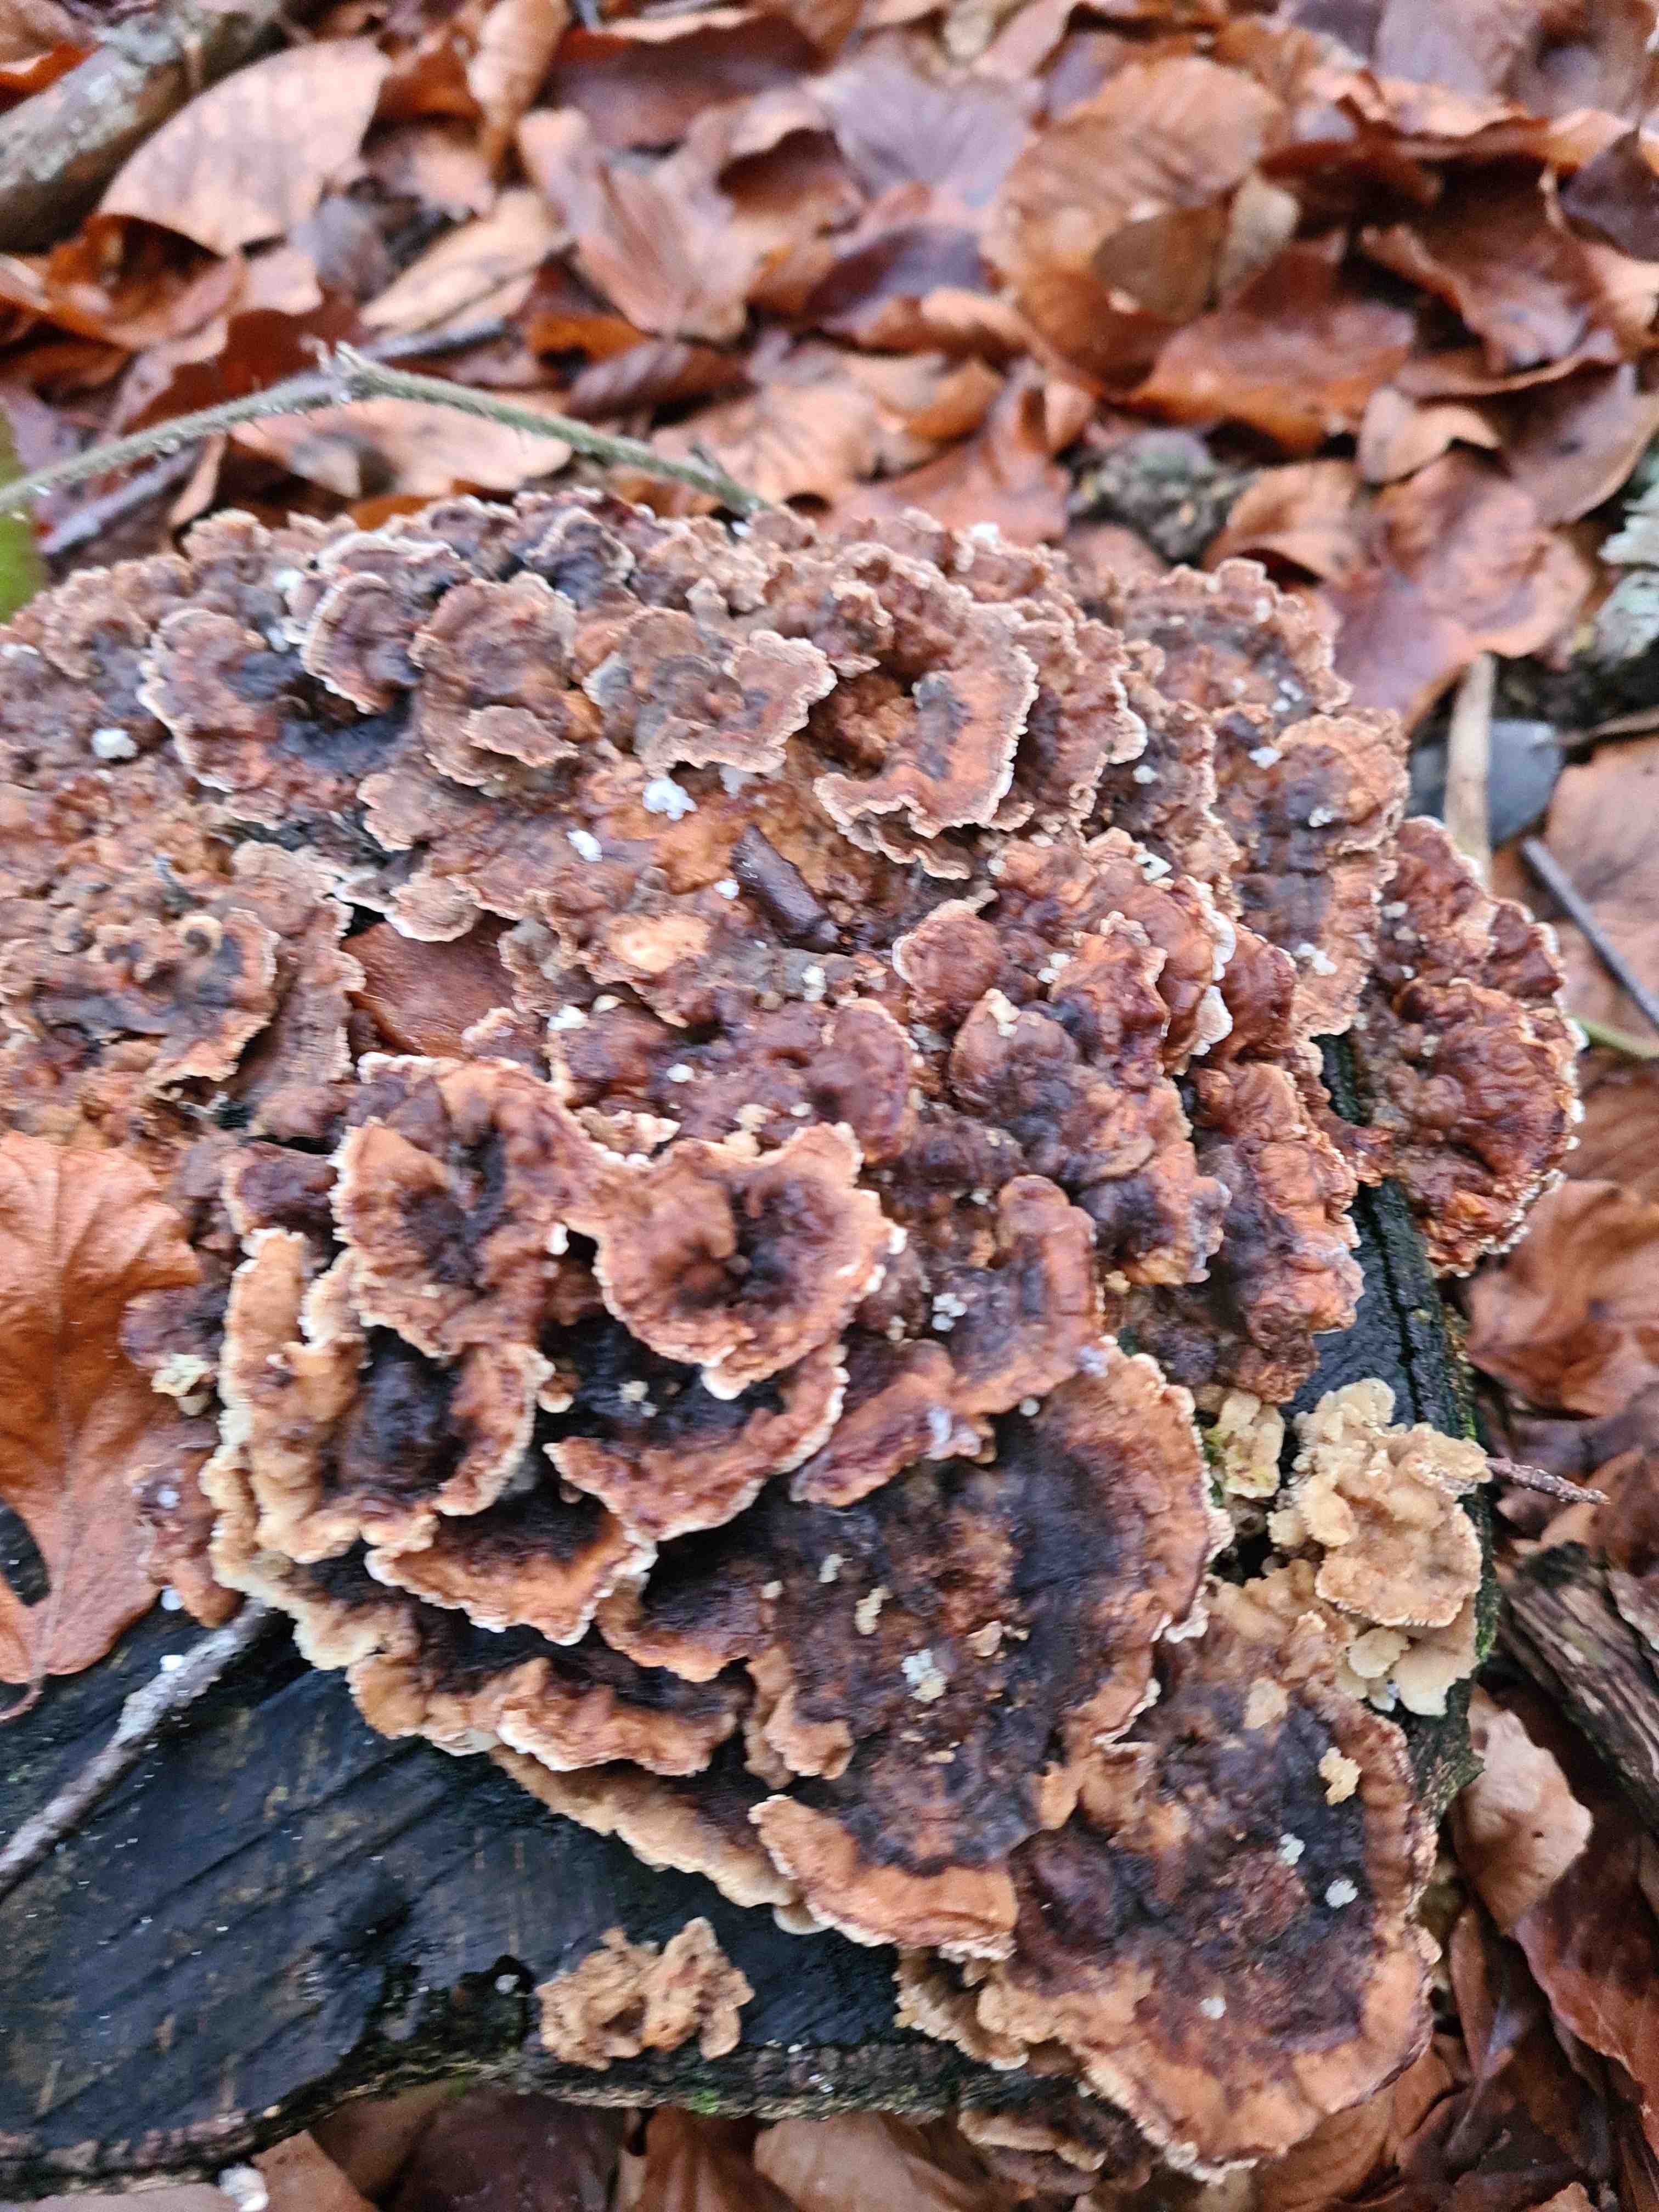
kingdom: Fungi
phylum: Basidiomycota
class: Agaricomycetes
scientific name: Agaricomycetes
